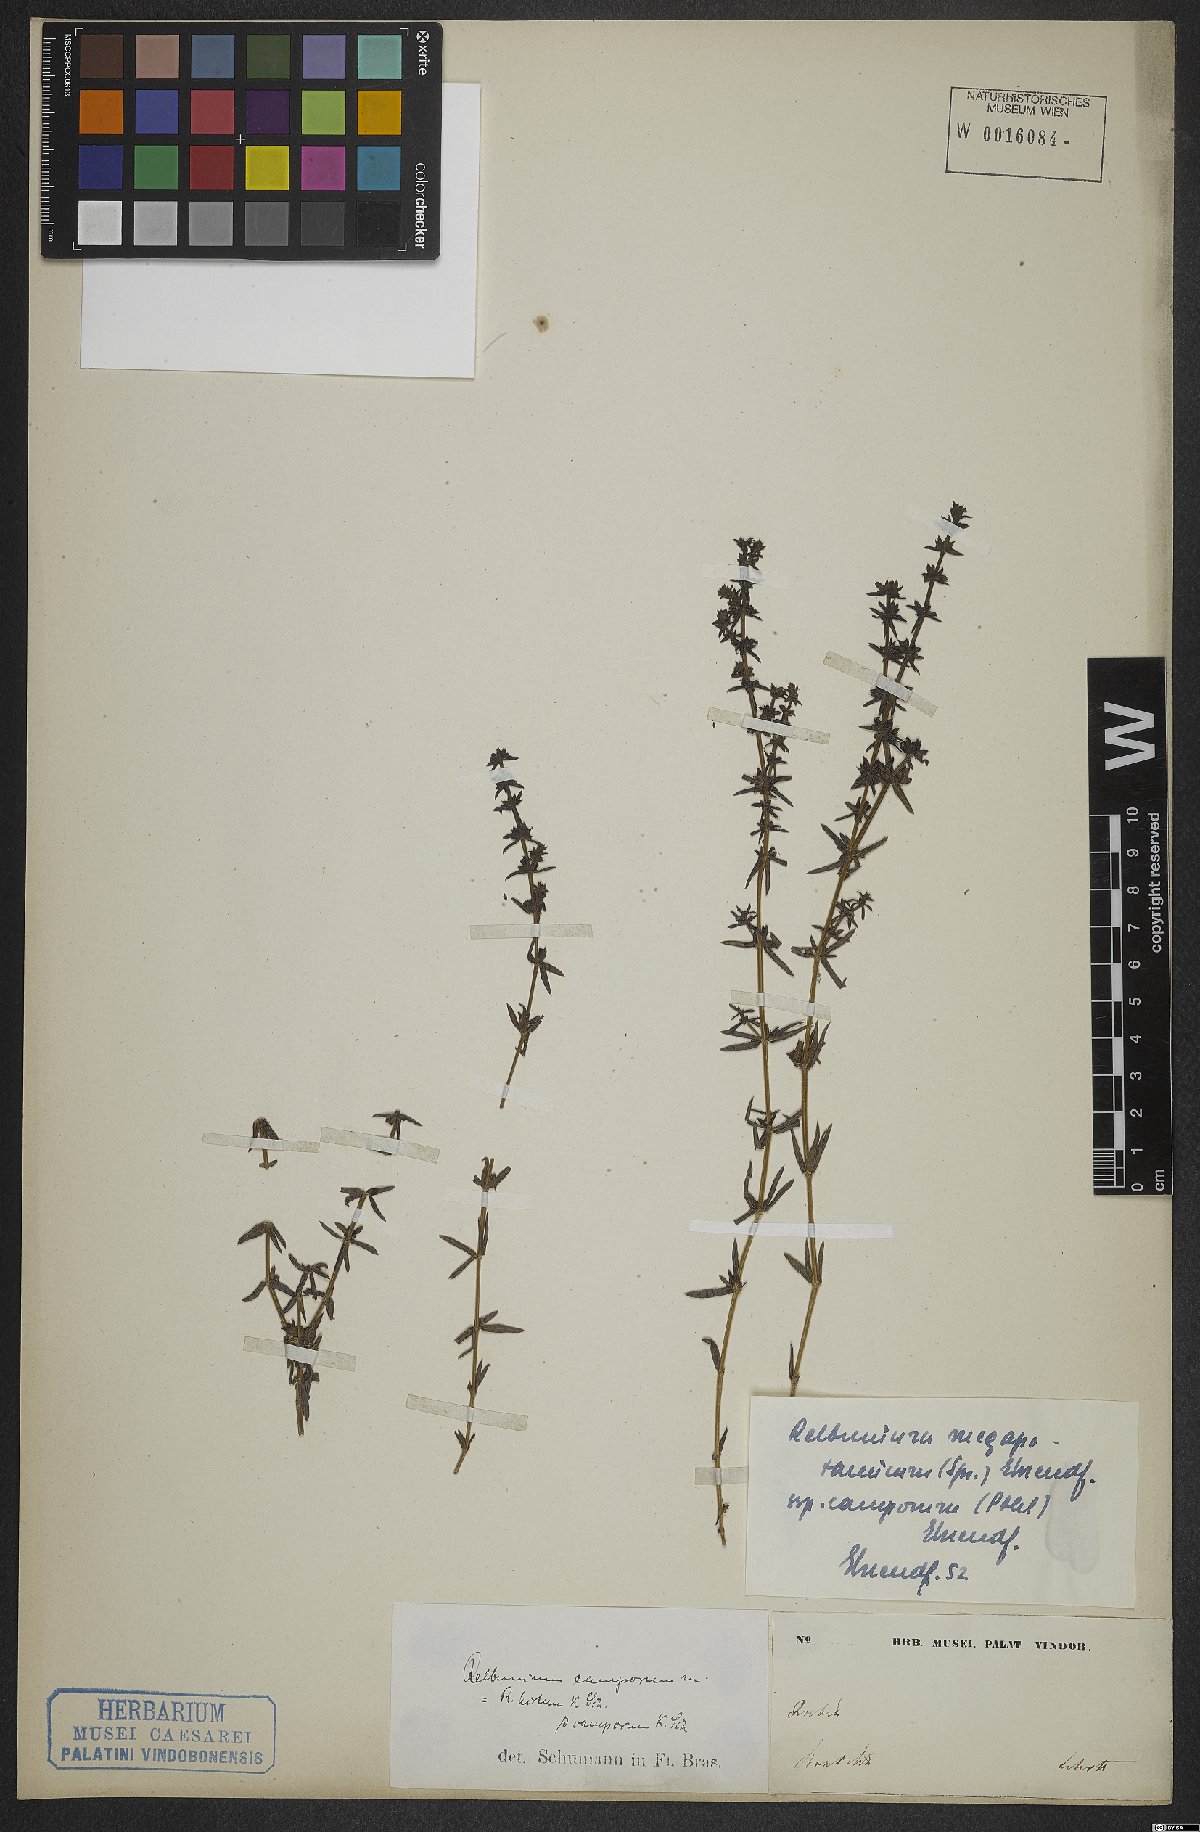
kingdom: Plantae
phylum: Tracheophyta
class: Magnoliopsida
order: Gentianales
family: Rubiaceae
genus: Galium
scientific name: Galium megapotamicum
